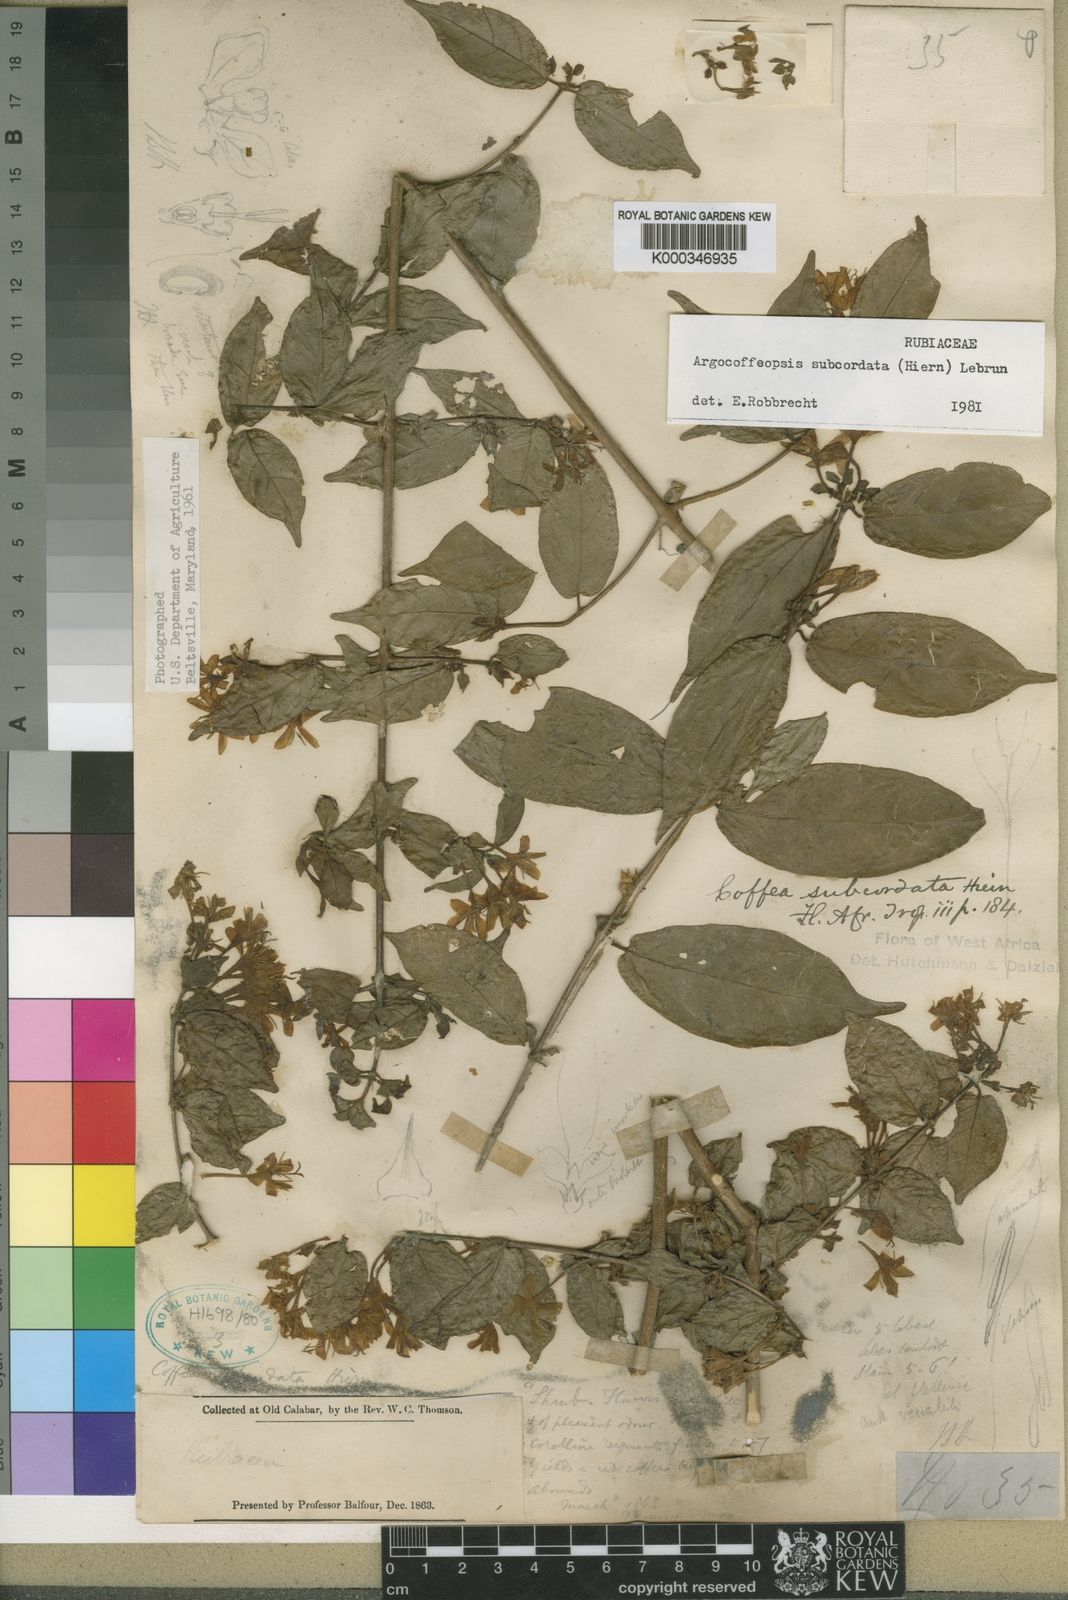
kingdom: Plantae
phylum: Tracheophyta
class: Magnoliopsida
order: Gentianales
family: Rubiaceae
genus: Argocoffeopsis
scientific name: Argocoffeopsis subcordata
